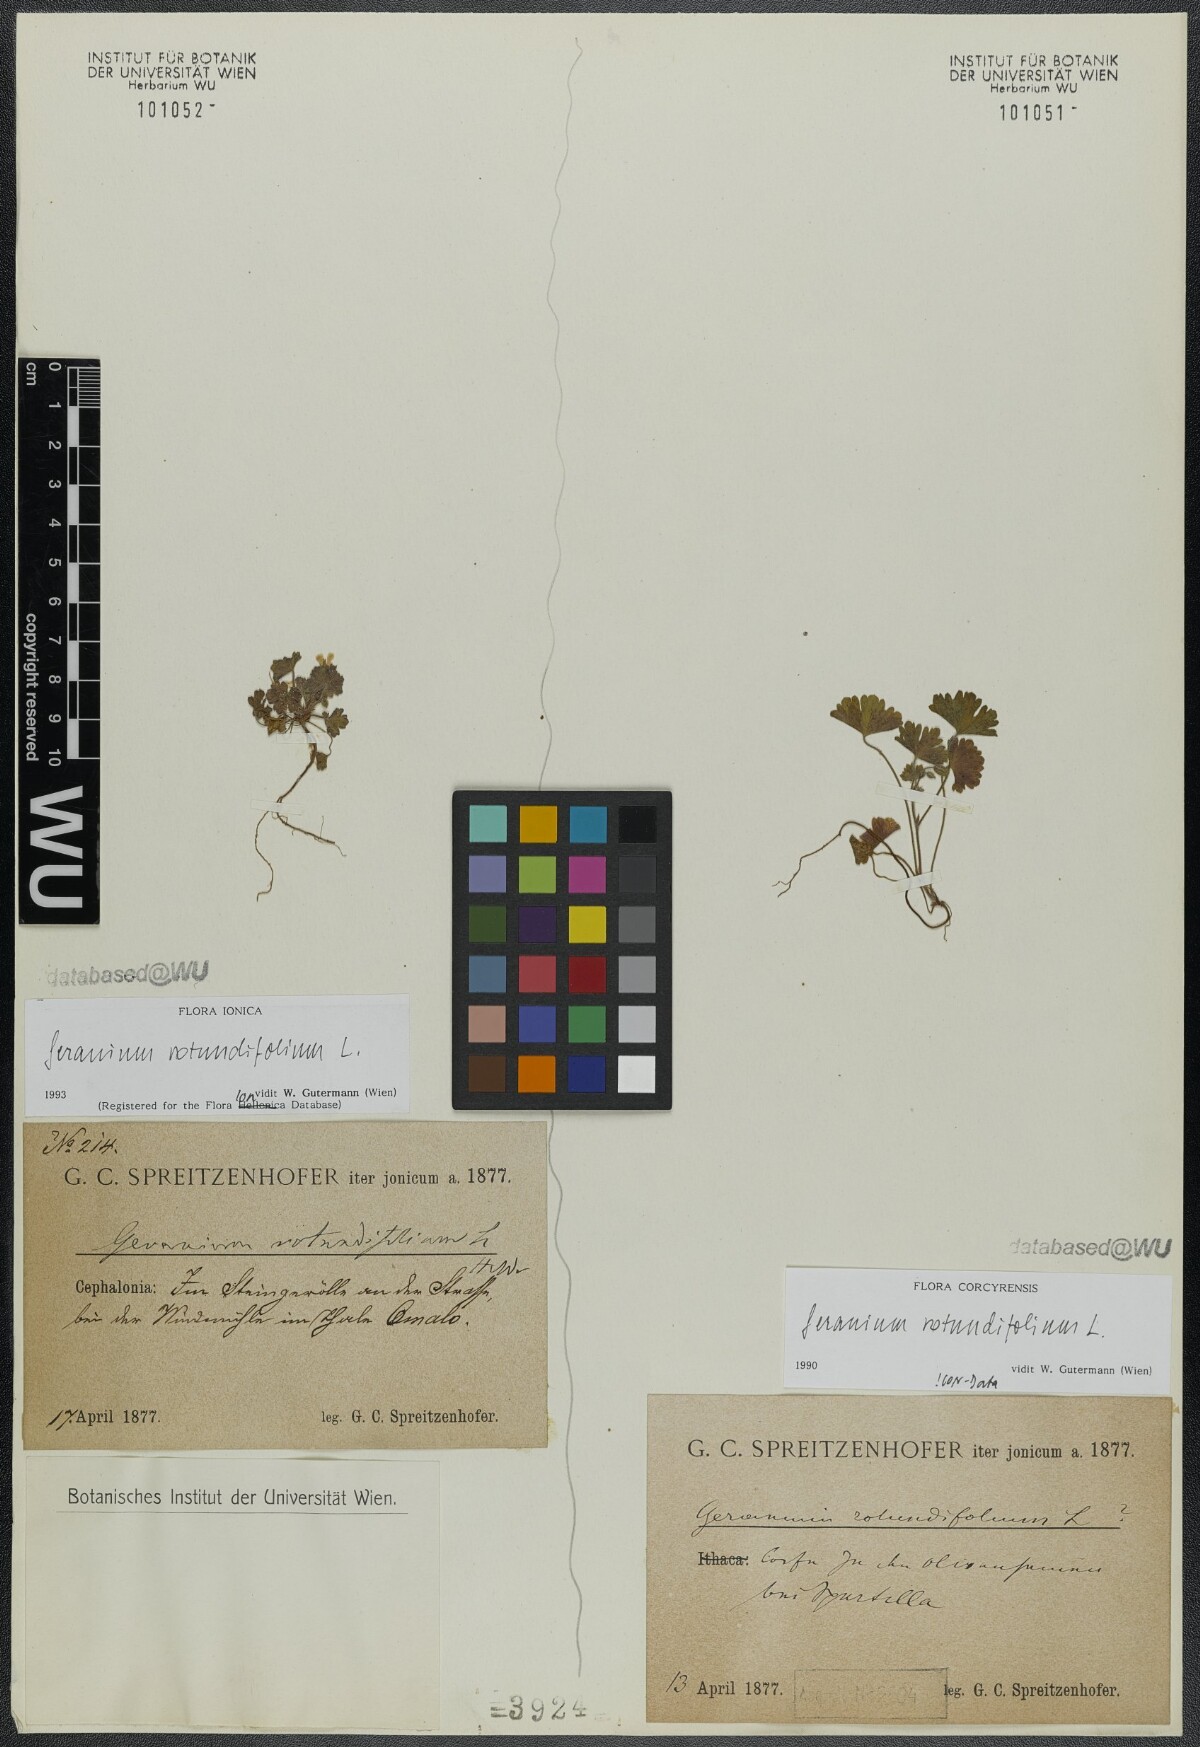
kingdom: Plantae
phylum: Tracheophyta
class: Magnoliopsida
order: Geraniales
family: Geraniaceae
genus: Geranium
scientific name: Geranium rotundifolium
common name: Round-leaved crane's-bill
